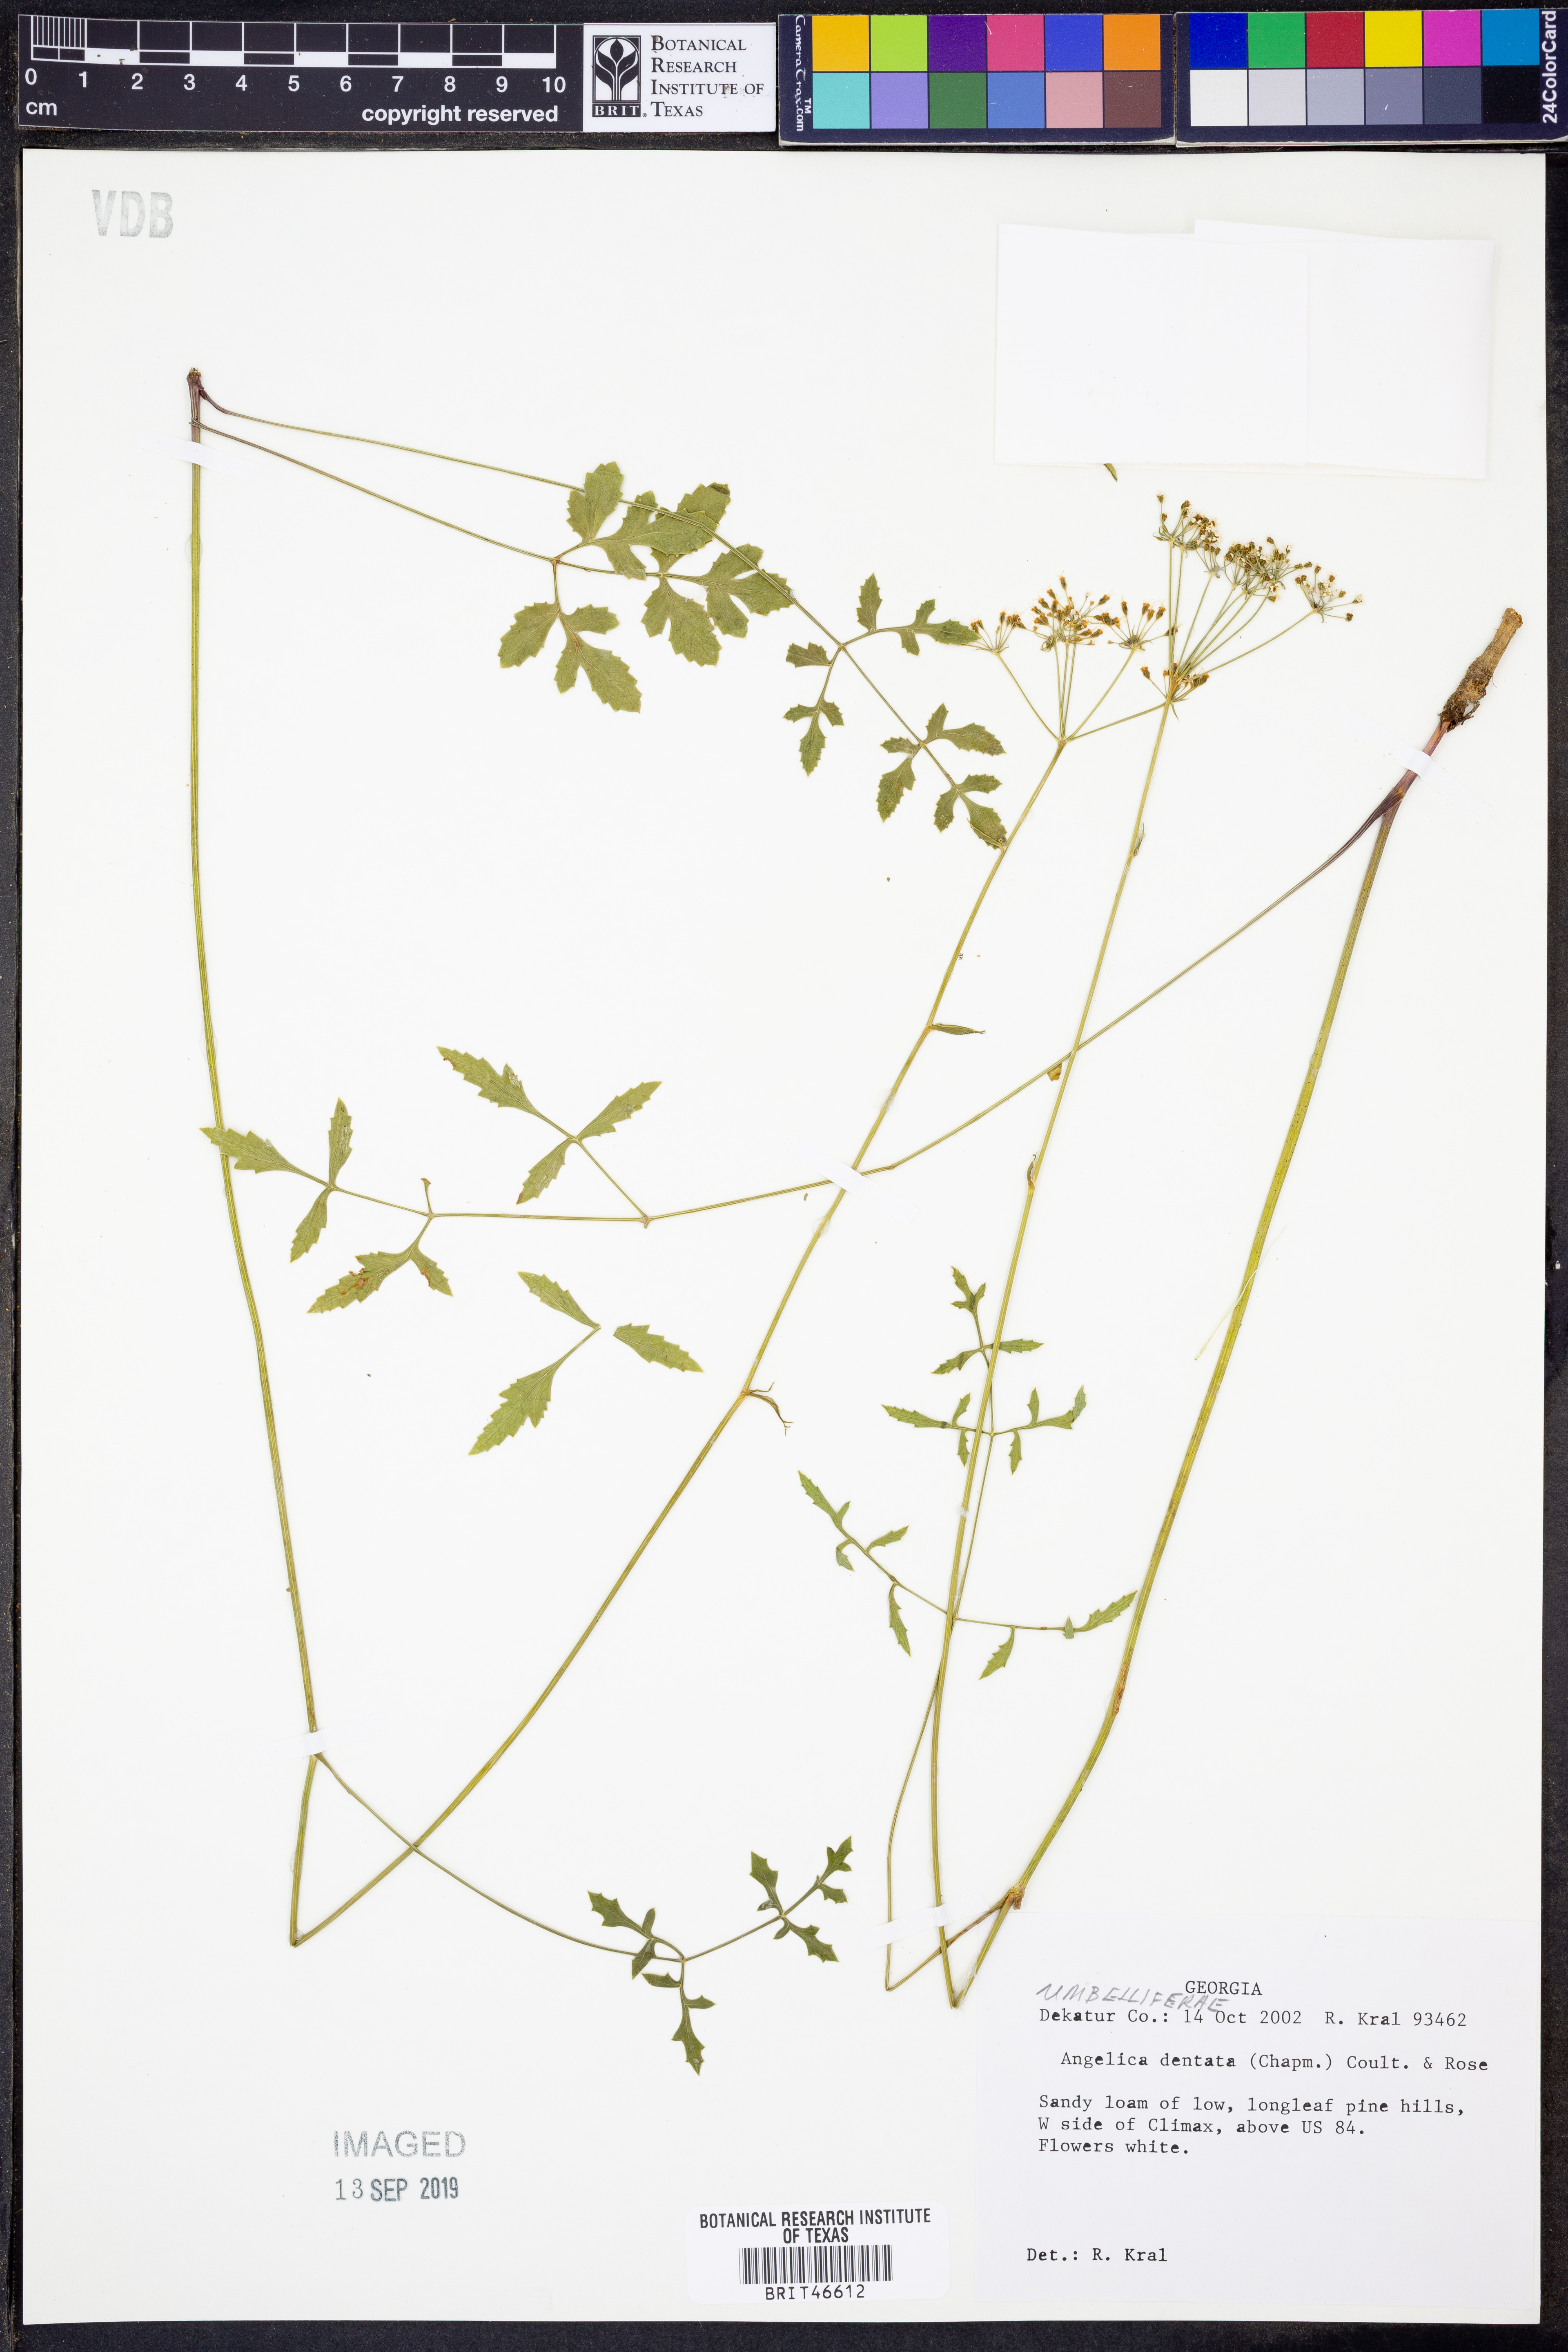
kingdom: Plantae
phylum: Tracheophyta
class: Magnoliopsida
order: Apiales
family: Apiaceae
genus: Angelica
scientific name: Angelica venenosa
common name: Hairy angelica
